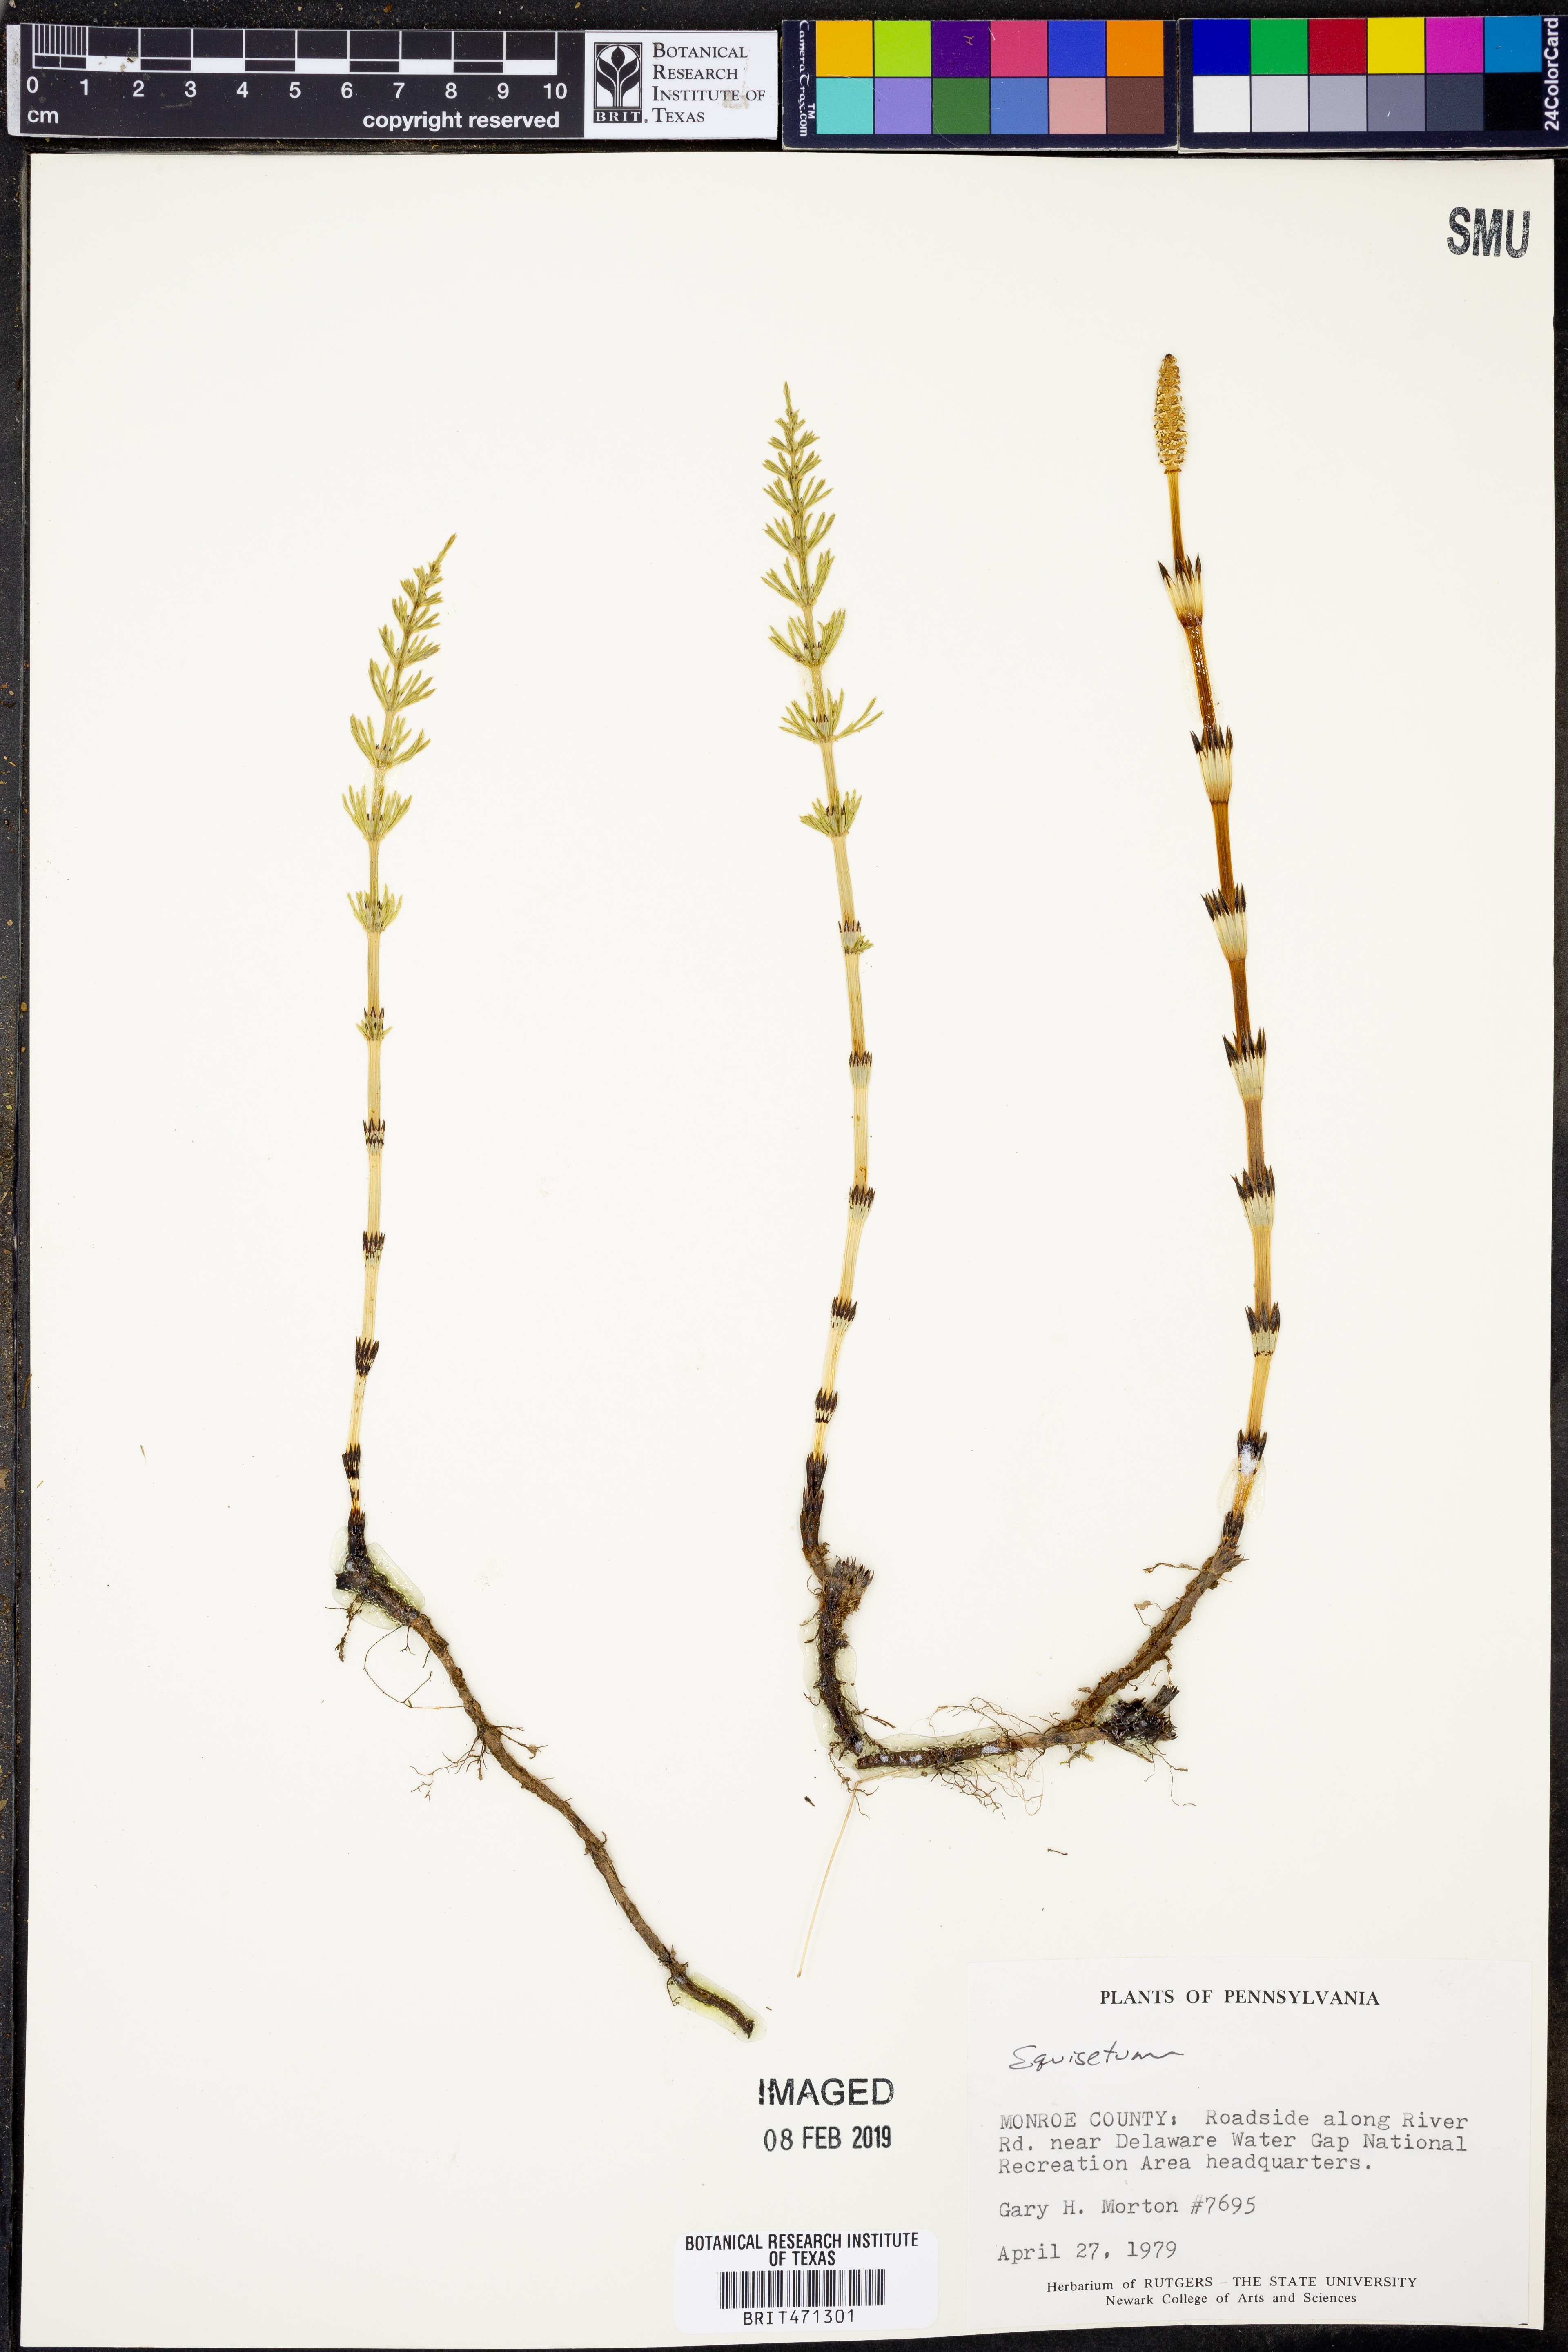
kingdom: Plantae
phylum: Tracheophyta
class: Polypodiopsida
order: Equisetales
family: Equisetaceae
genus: Equisetum
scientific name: Equisetum
